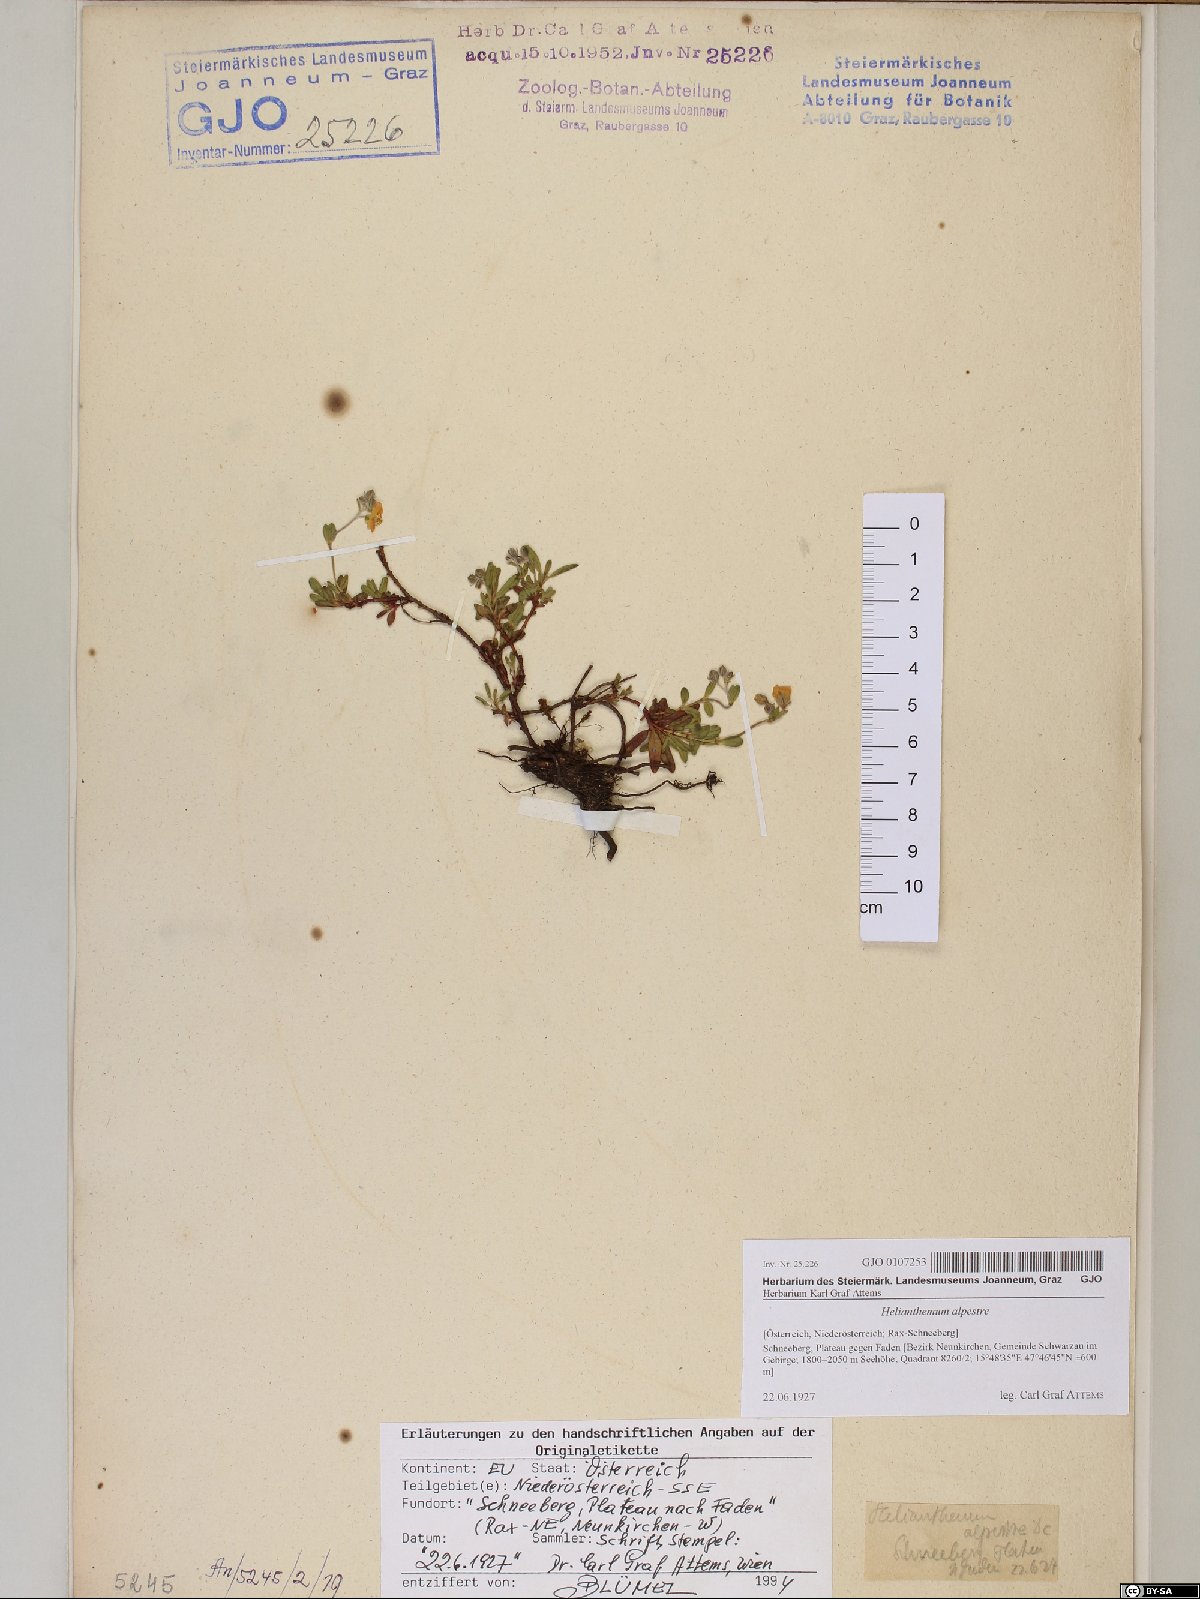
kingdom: Plantae
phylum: Tracheophyta
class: Magnoliopsida
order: Malvales
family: Cistaceae
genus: Helianthemum
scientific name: Helianthemum alpestre
